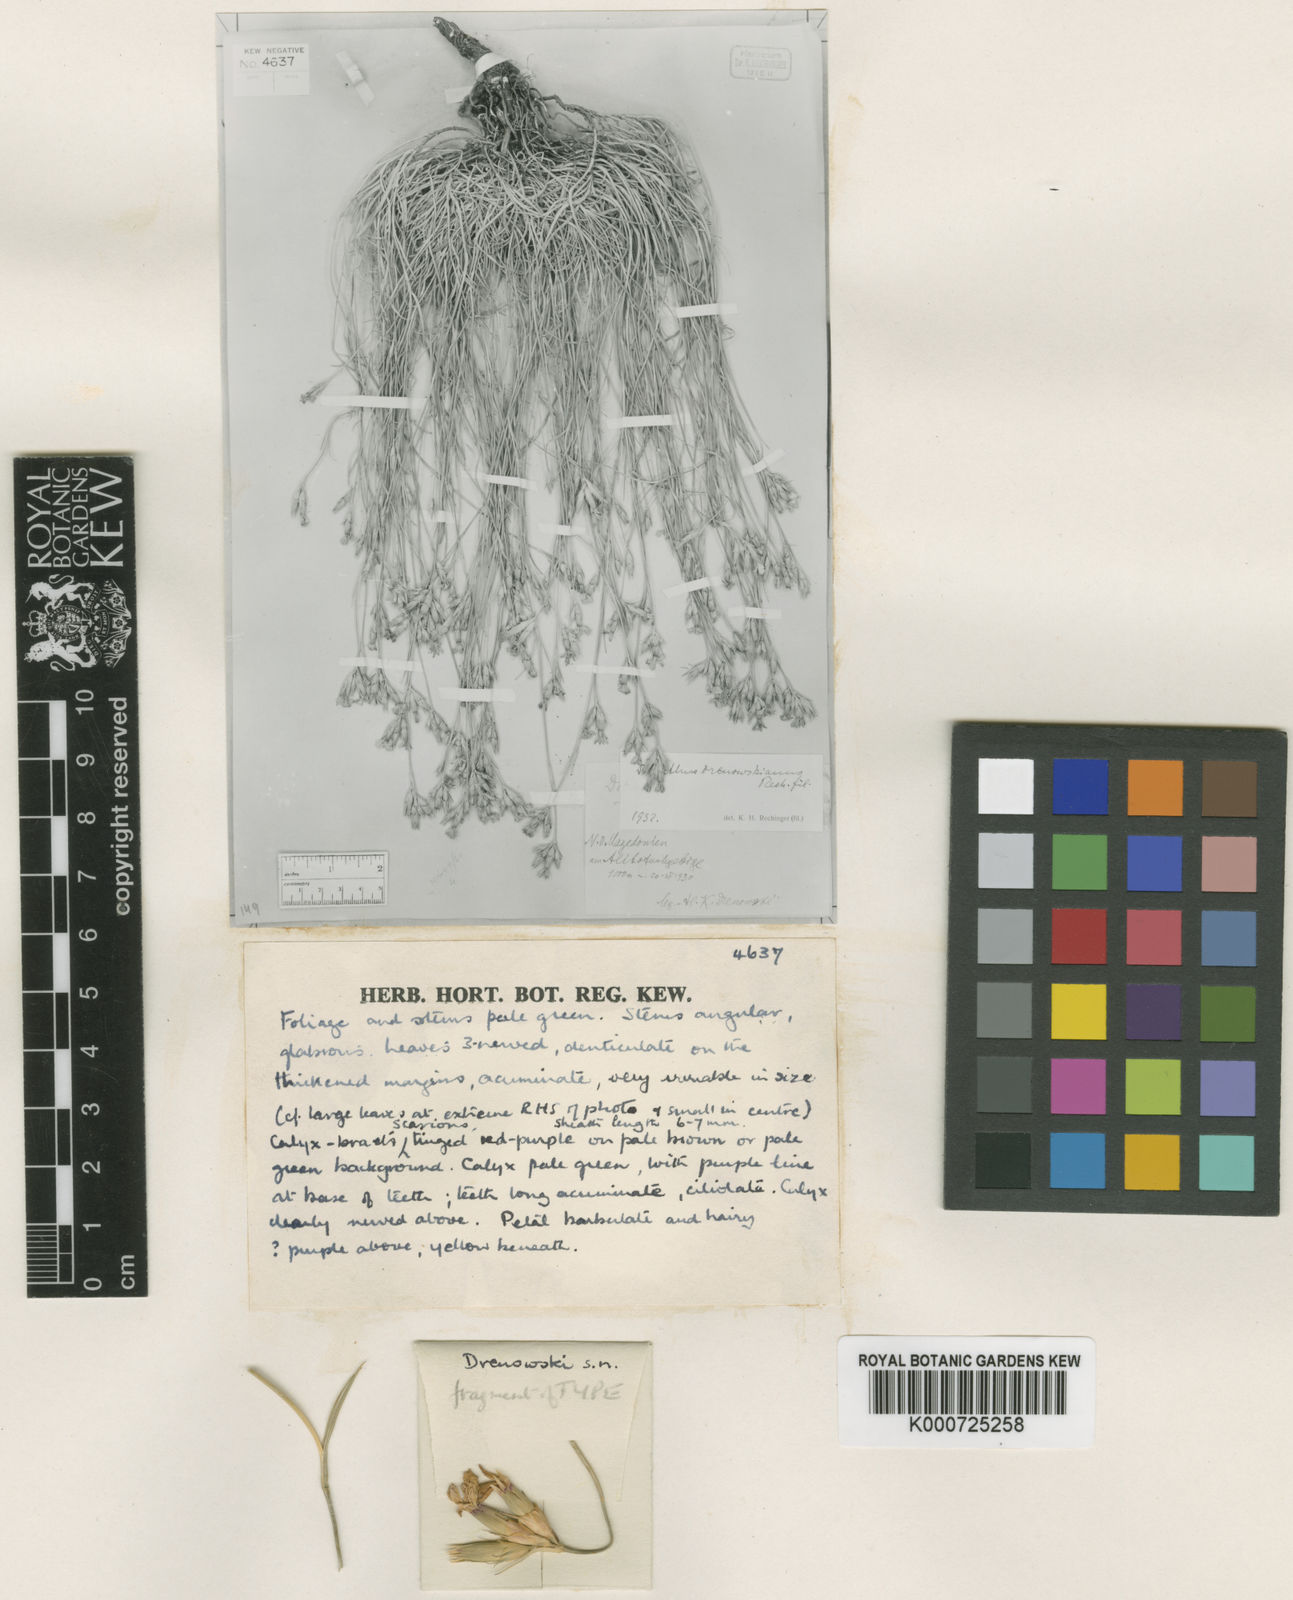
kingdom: Plantae
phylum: Tracheophyta
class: Magnoliopsida
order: Caryophyllales
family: Caryophyllaceae
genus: Dianthus
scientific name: Dianthus gracilis
